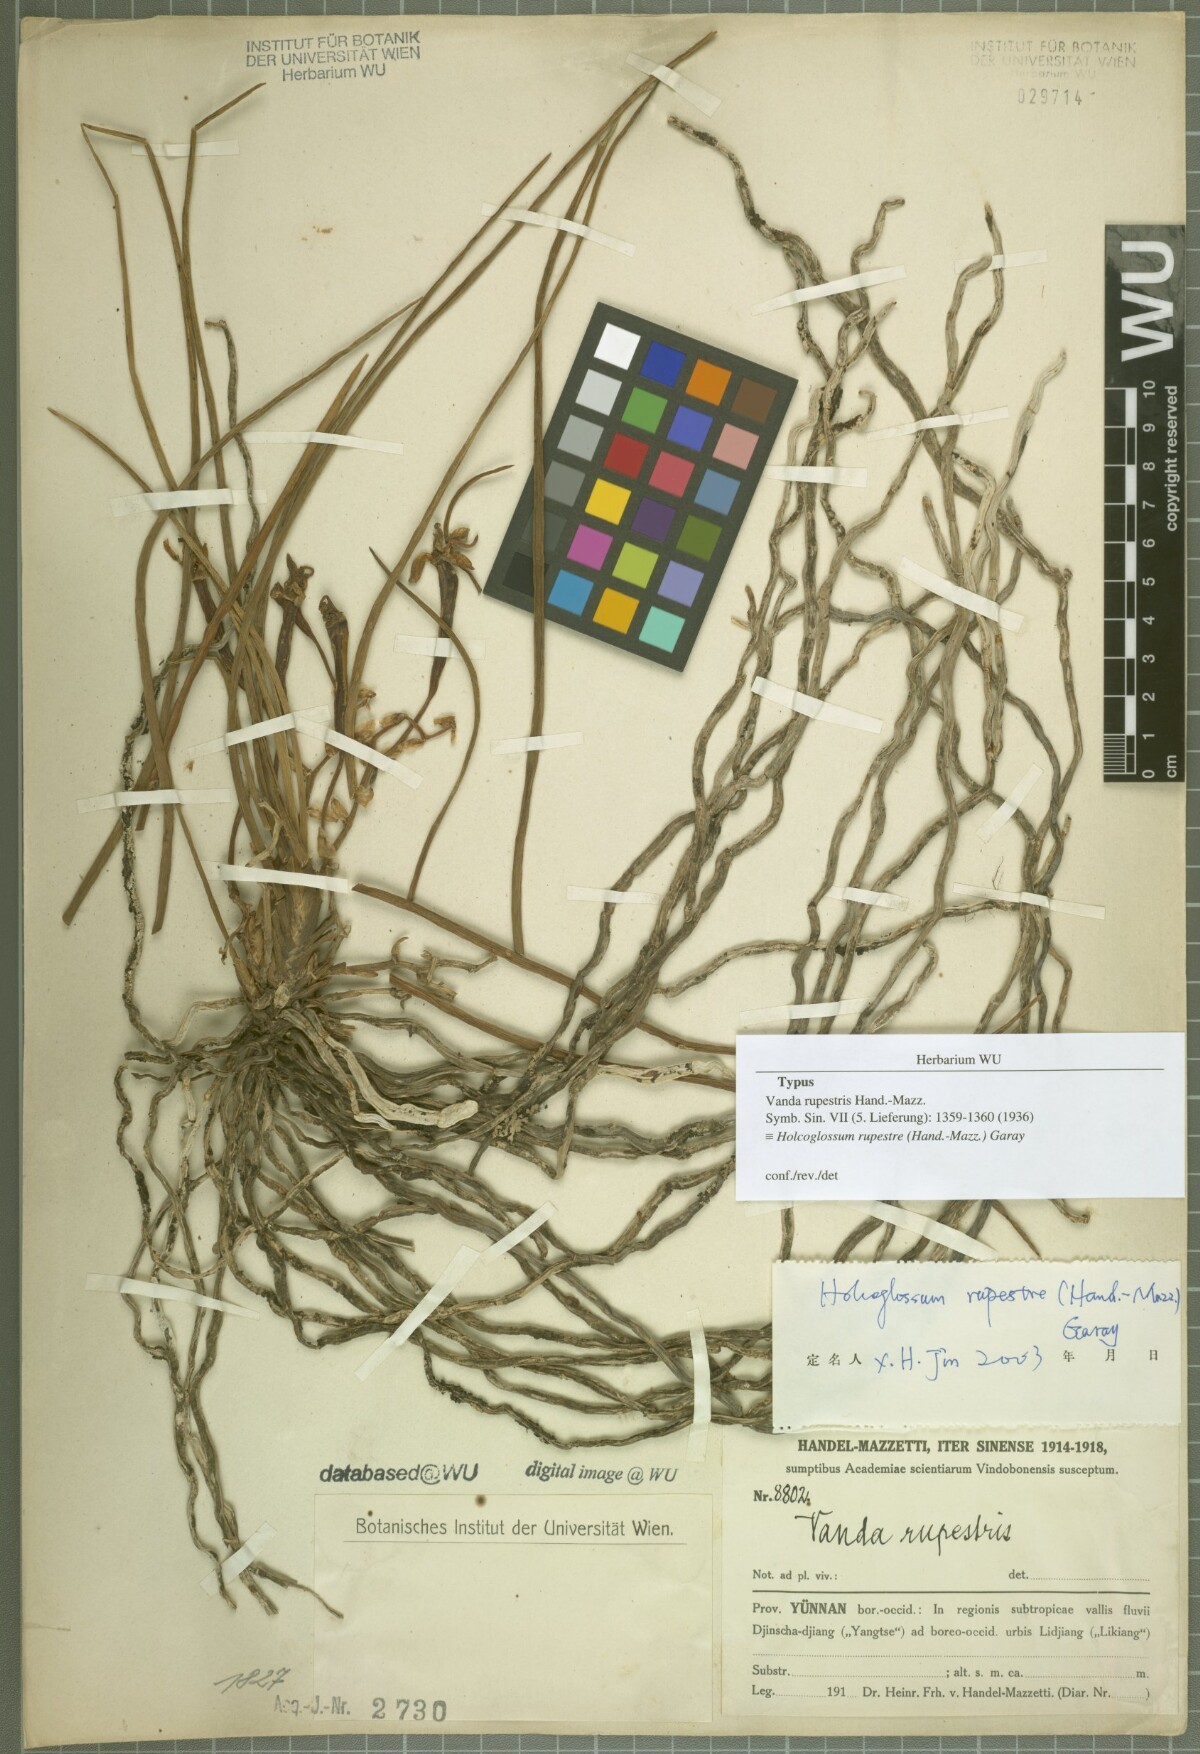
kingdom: Plantae
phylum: Tracheophyta
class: Liliopsida
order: Asparagales
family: Orchidaceae
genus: Holcoglossum
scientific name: Holcoglossum rupestre
